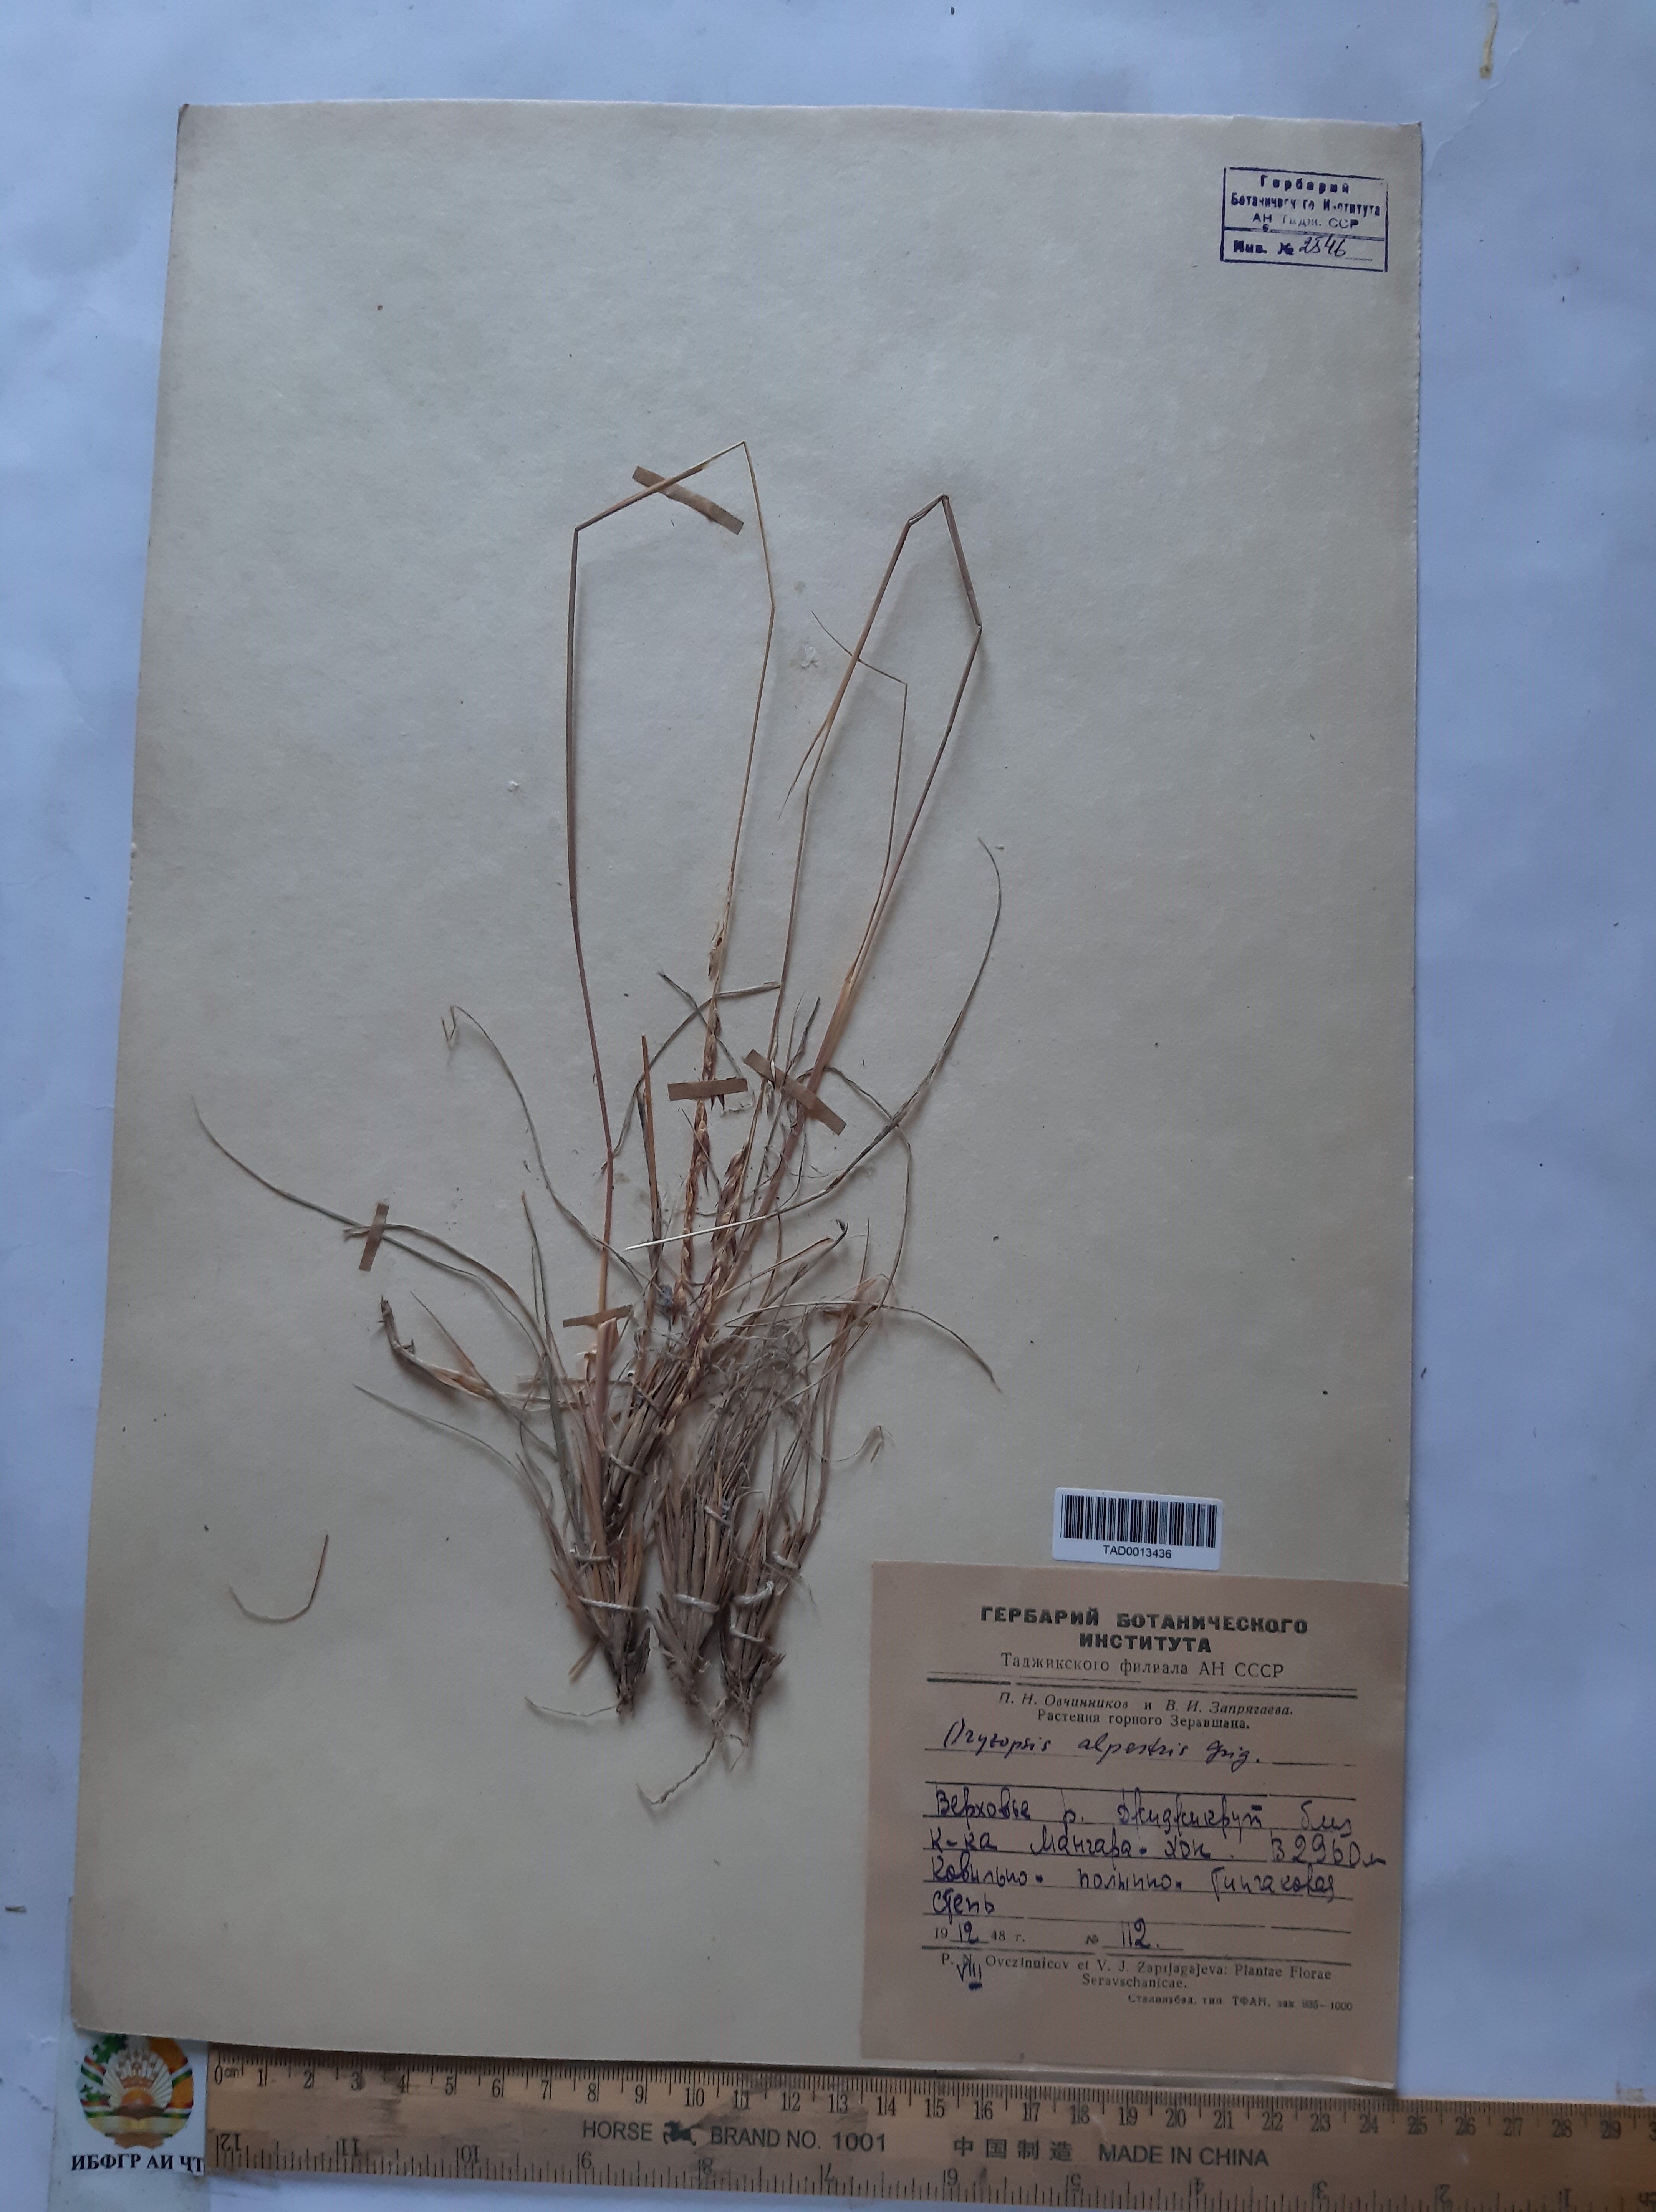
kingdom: Plantae
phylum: Tracheophyta
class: Liliopsida
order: Poales
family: Poaceae
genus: Piptatherum
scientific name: Piptatherum alpestre
